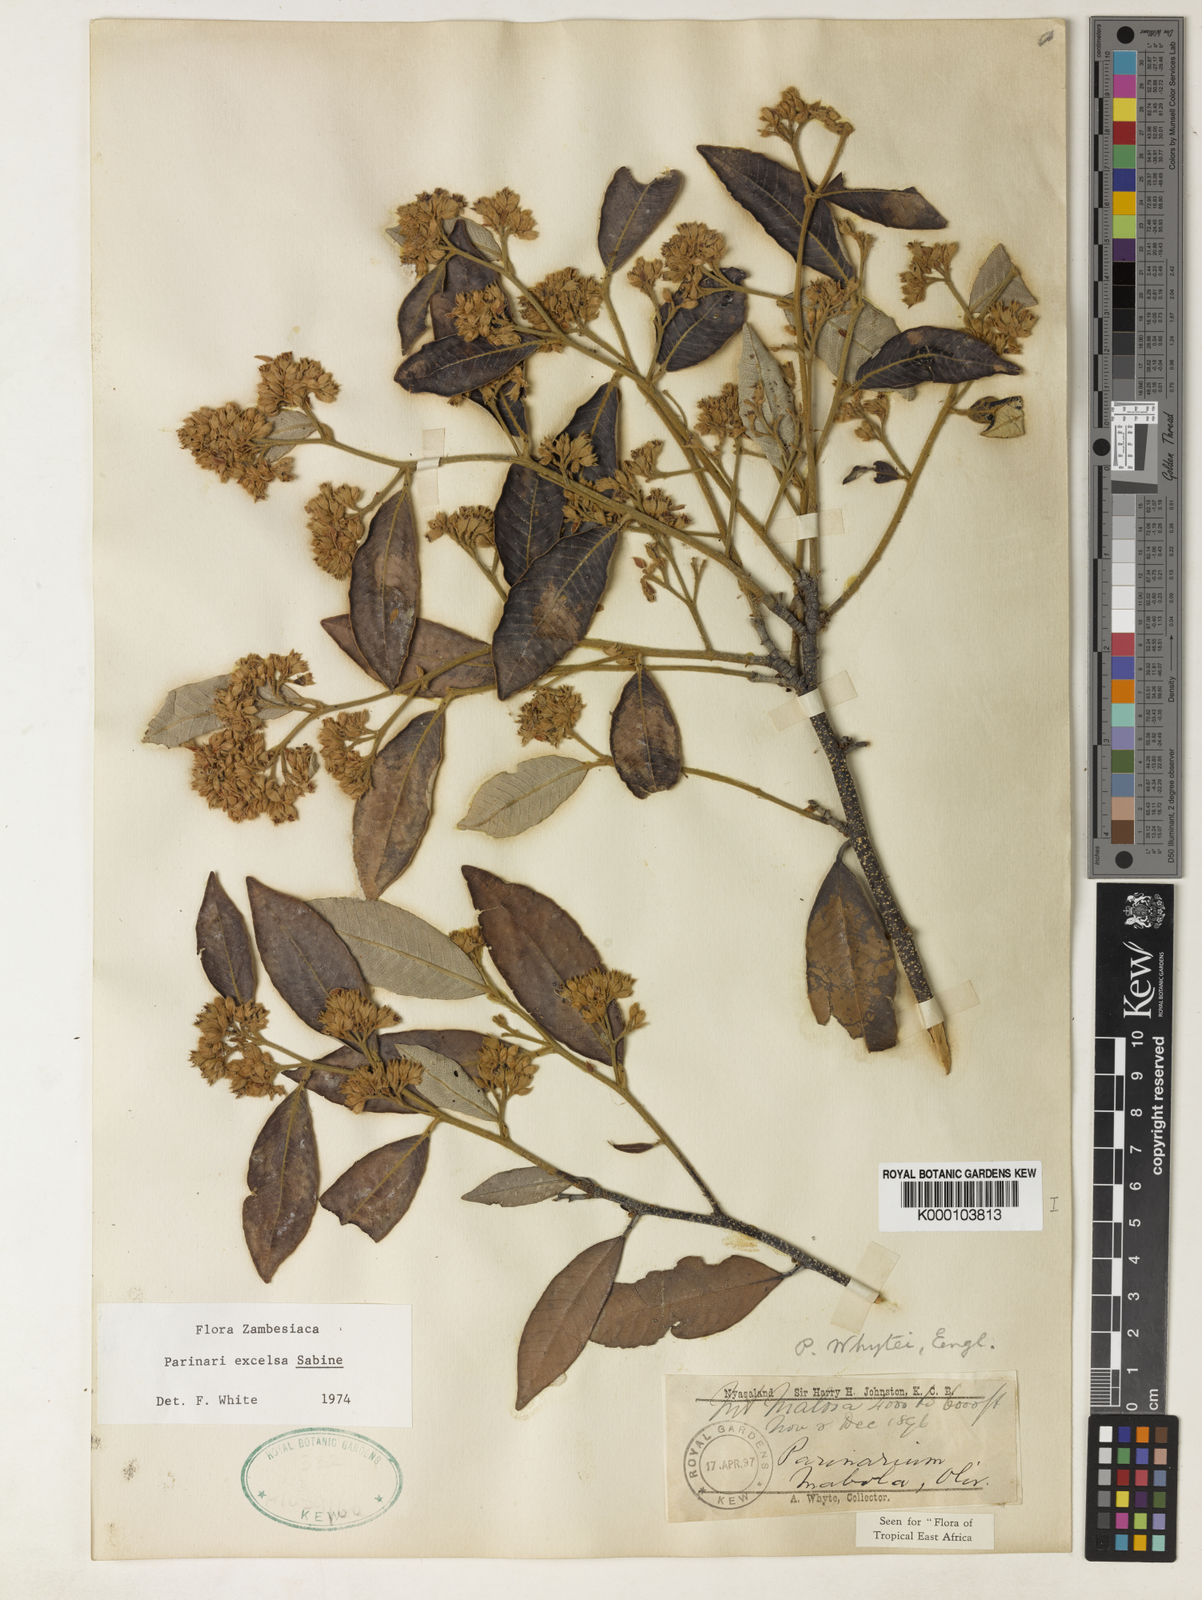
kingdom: Plantae
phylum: Tracheophyta
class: Magnoliopsida
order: Malpighiales
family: Chrysobalanaceae
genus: Parinari
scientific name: Parinari excelsa
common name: Guinea-plum
